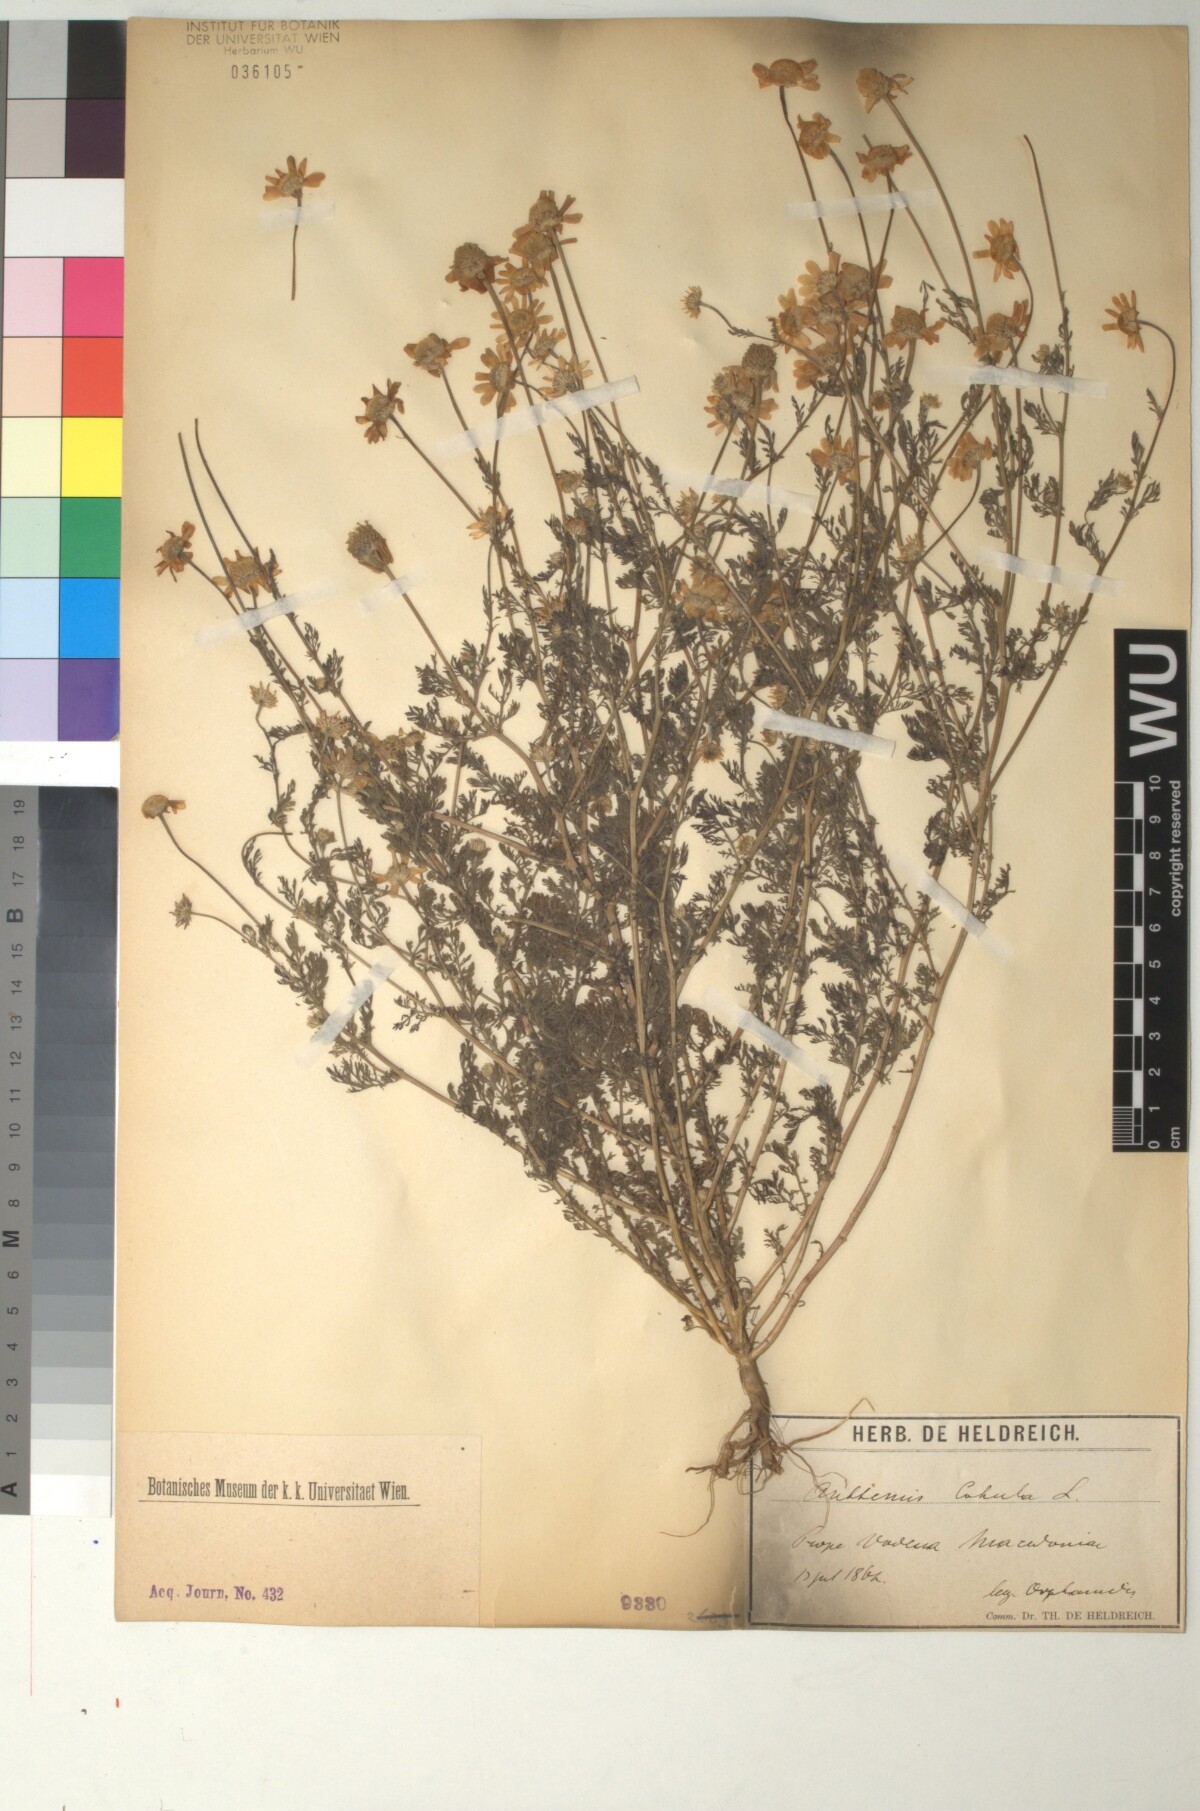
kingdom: Plantae
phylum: Tracheophyta
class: Magnoliopsida
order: Asterales
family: Asteraceae
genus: Anthemis
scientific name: Anthemis cotula
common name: Stinking chamomile
